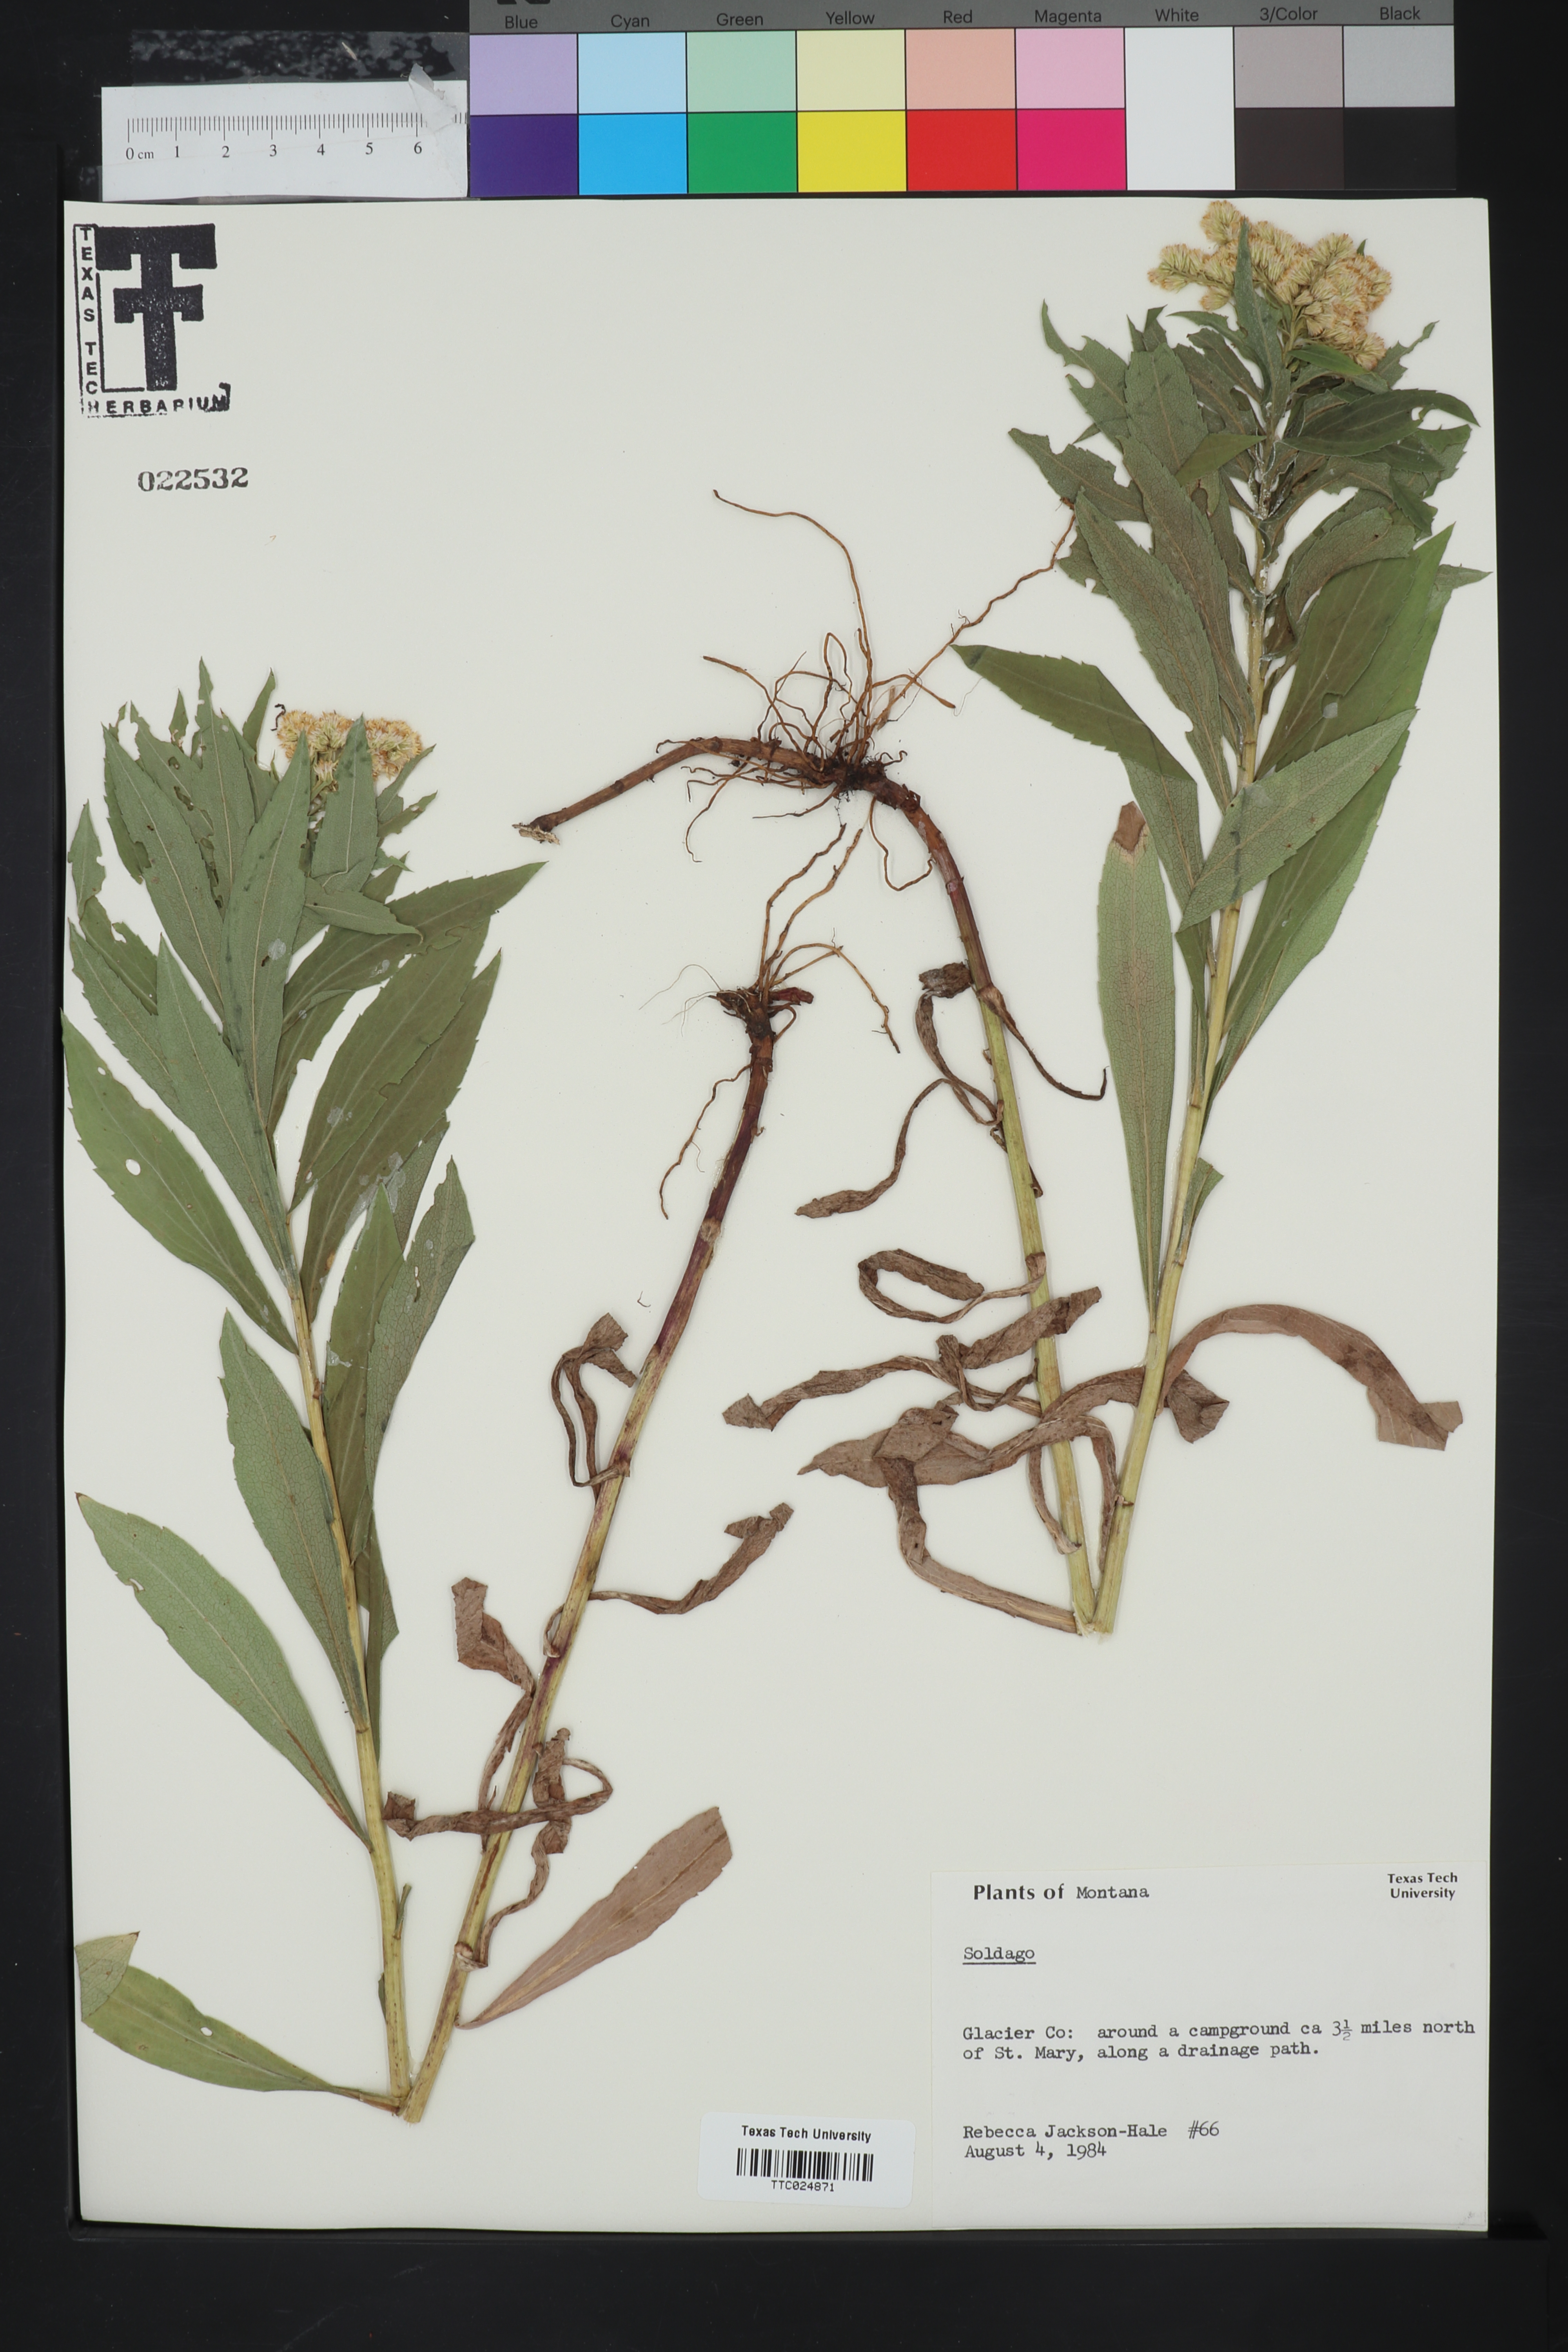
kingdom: Plantae
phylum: Tracheophyta
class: Magnoliopsida
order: Asterales
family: Asteraceae
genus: Solidago
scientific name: Solidago
